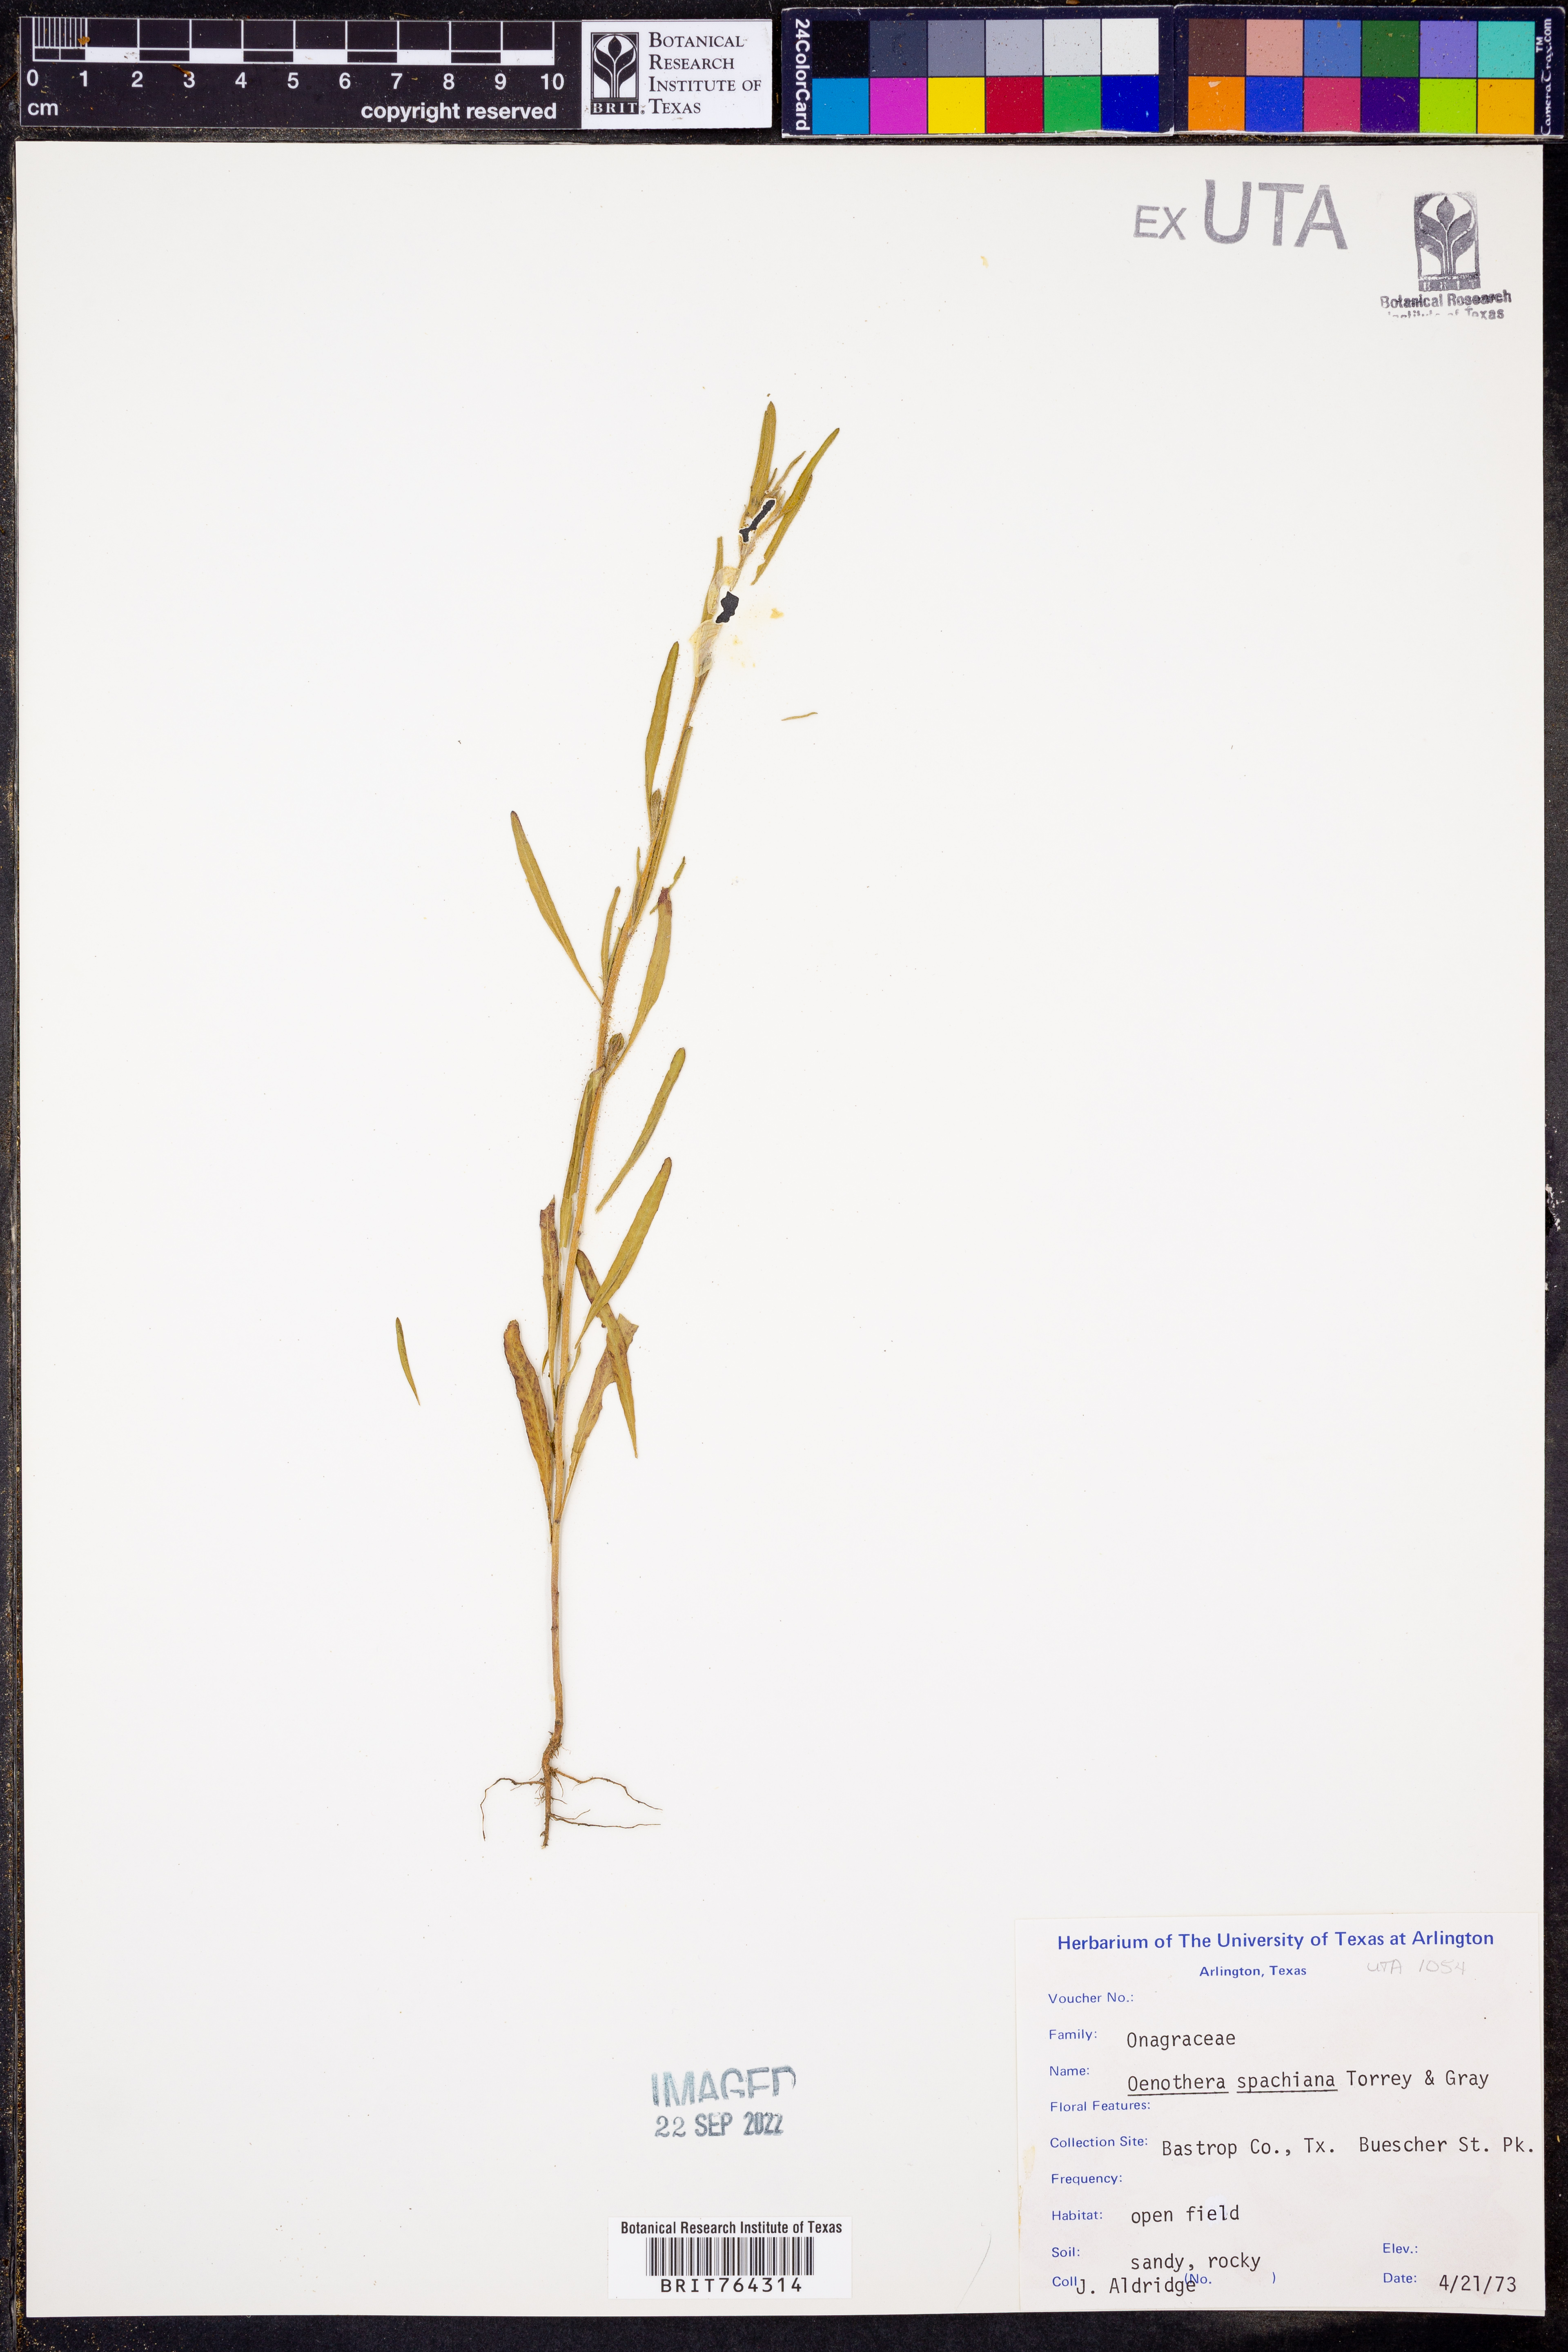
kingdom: Plantae
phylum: Tracheophyta
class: Magnoliopsida
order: Myrtales
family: Onagraceae
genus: Oenothera
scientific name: Oenothera spachiana
